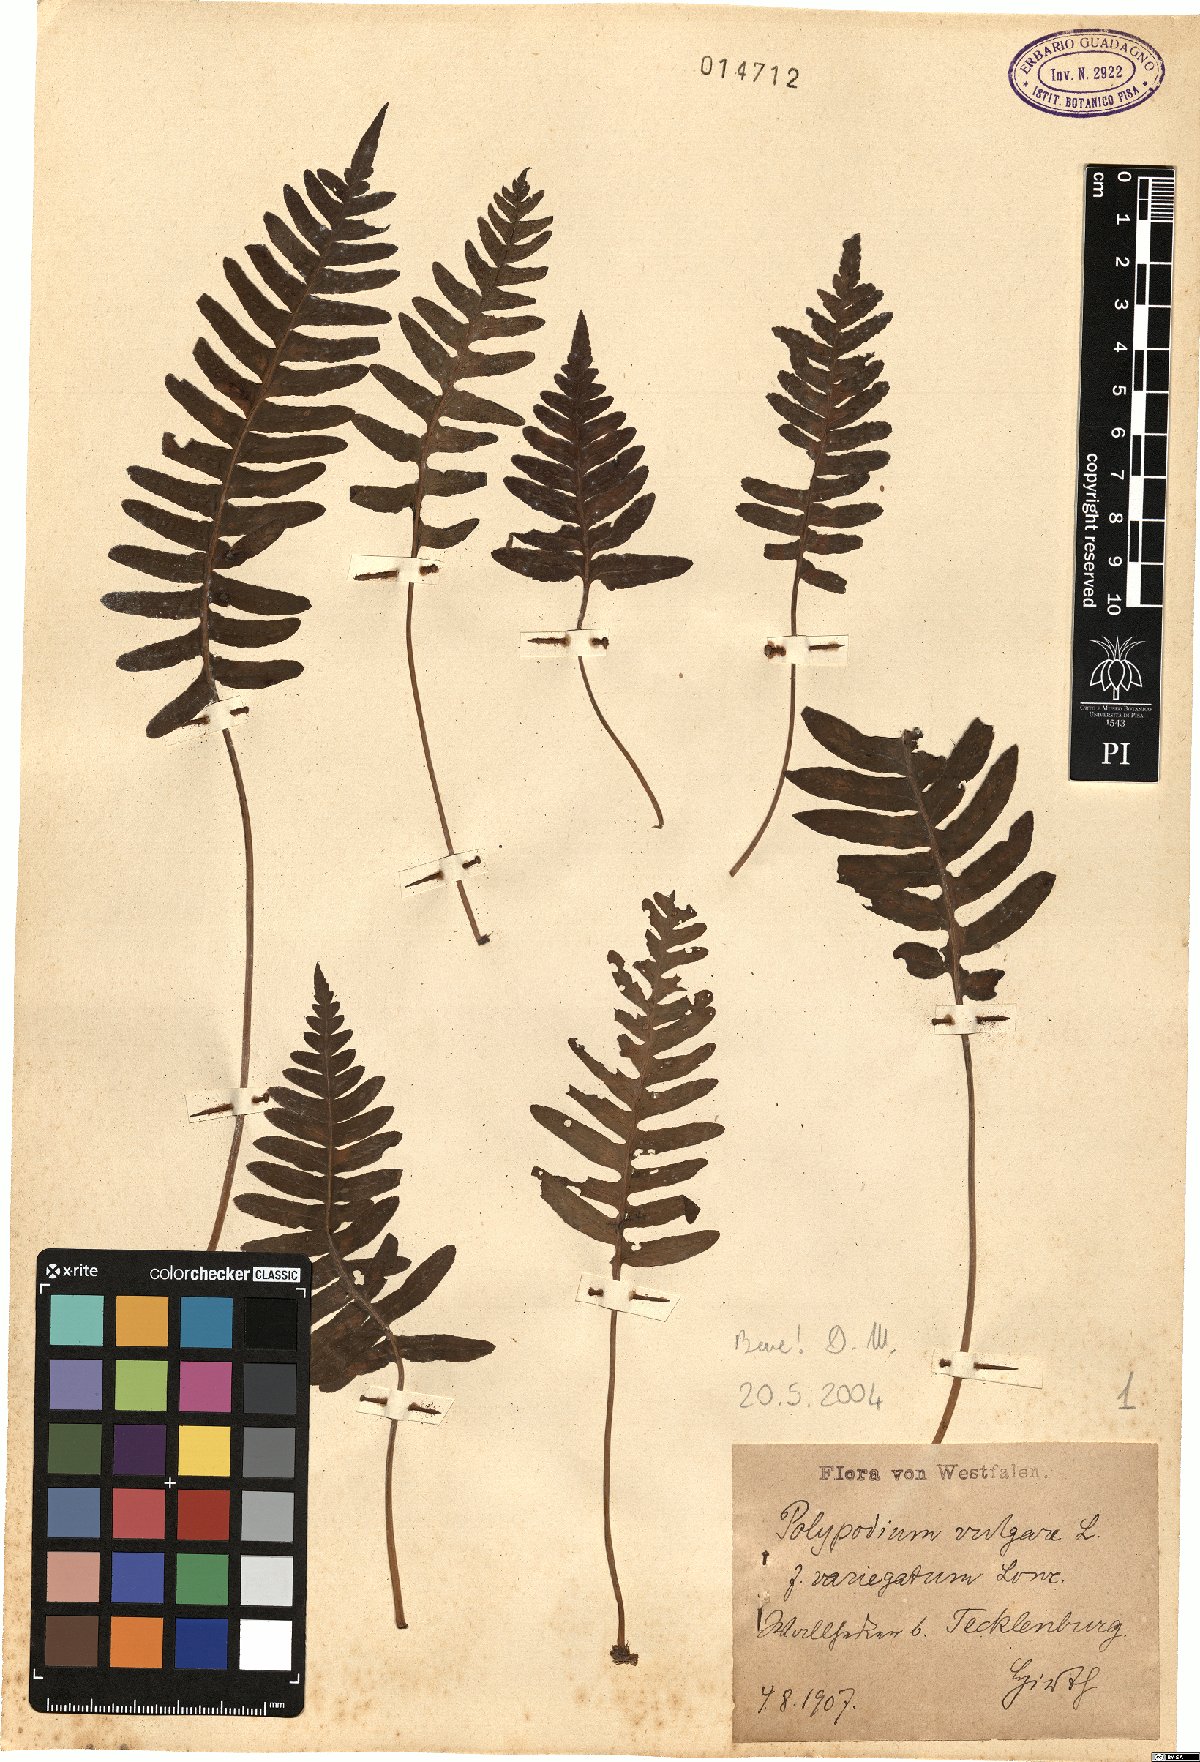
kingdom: Plantae
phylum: Tracheophyta
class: Polypodiopsida
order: Polypodiales
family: Polypodiaceae
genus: Polypodium
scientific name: Polypodium vulgare
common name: Common polypody
